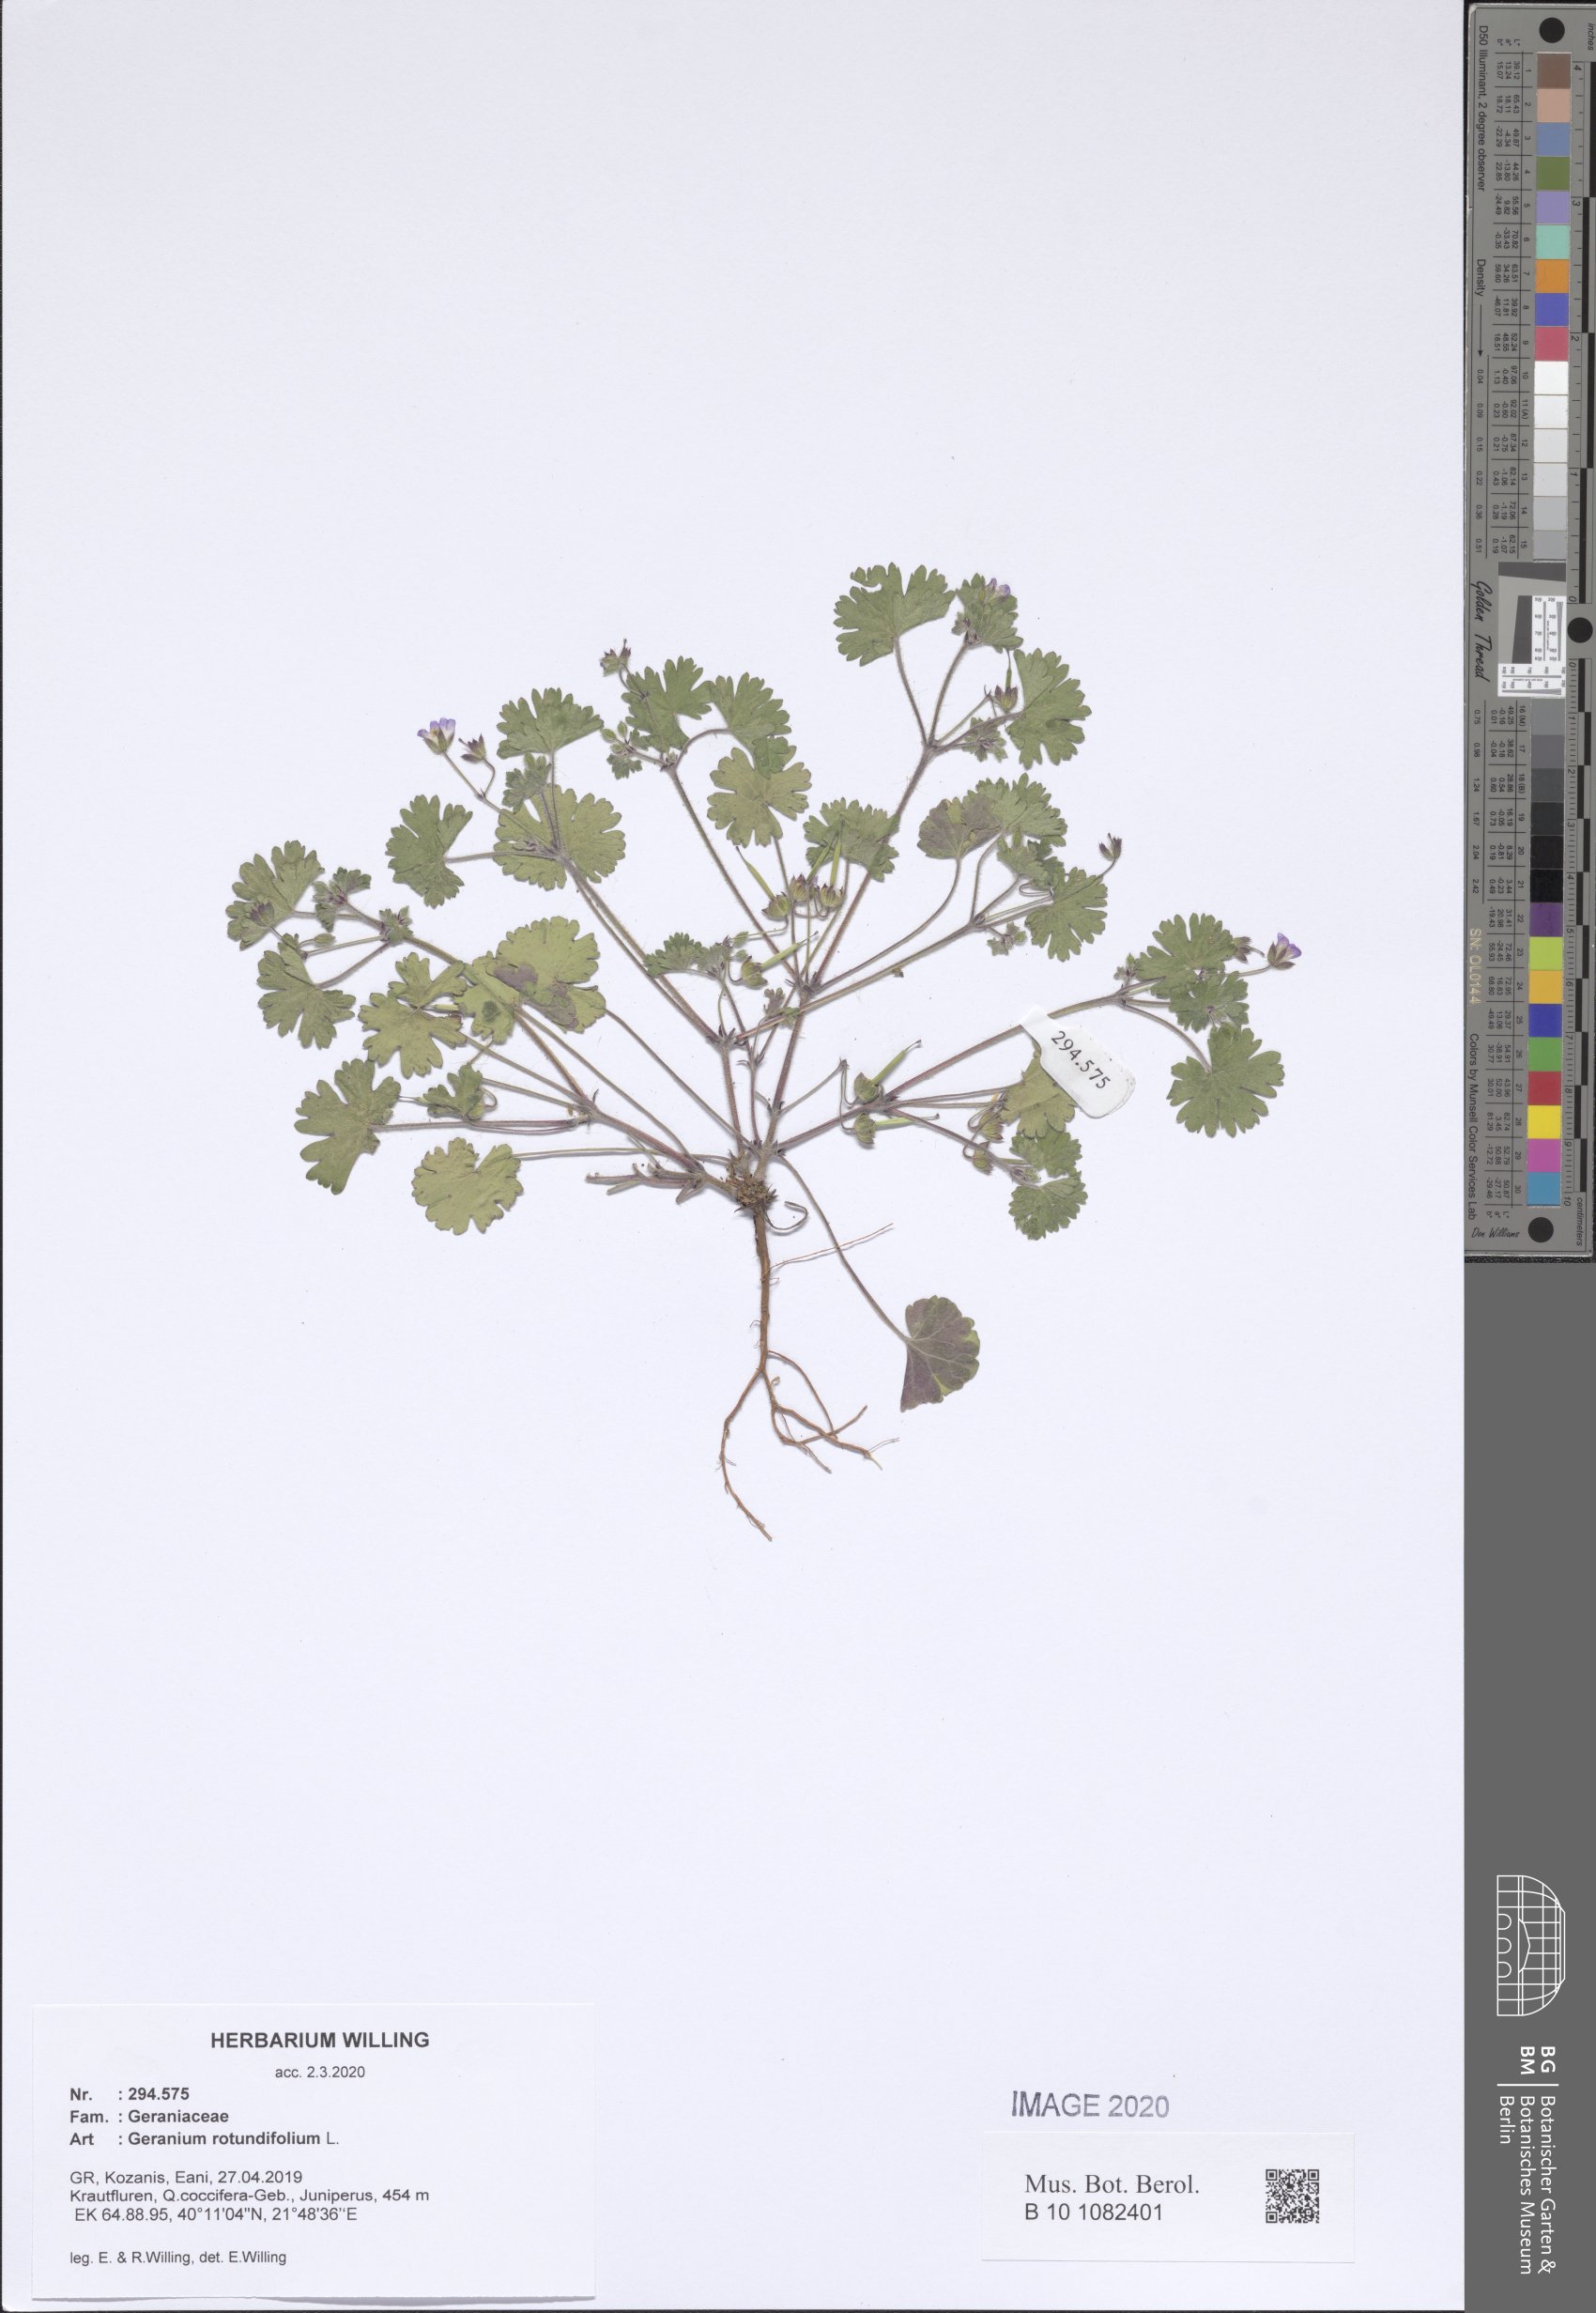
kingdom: Plantae
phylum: Tracheophyta
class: Magnoliopsida
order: Geraniales
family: Geraniaceae
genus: Geranium
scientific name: Geranium rotundifolium
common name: Round-leaved crane's-bill
